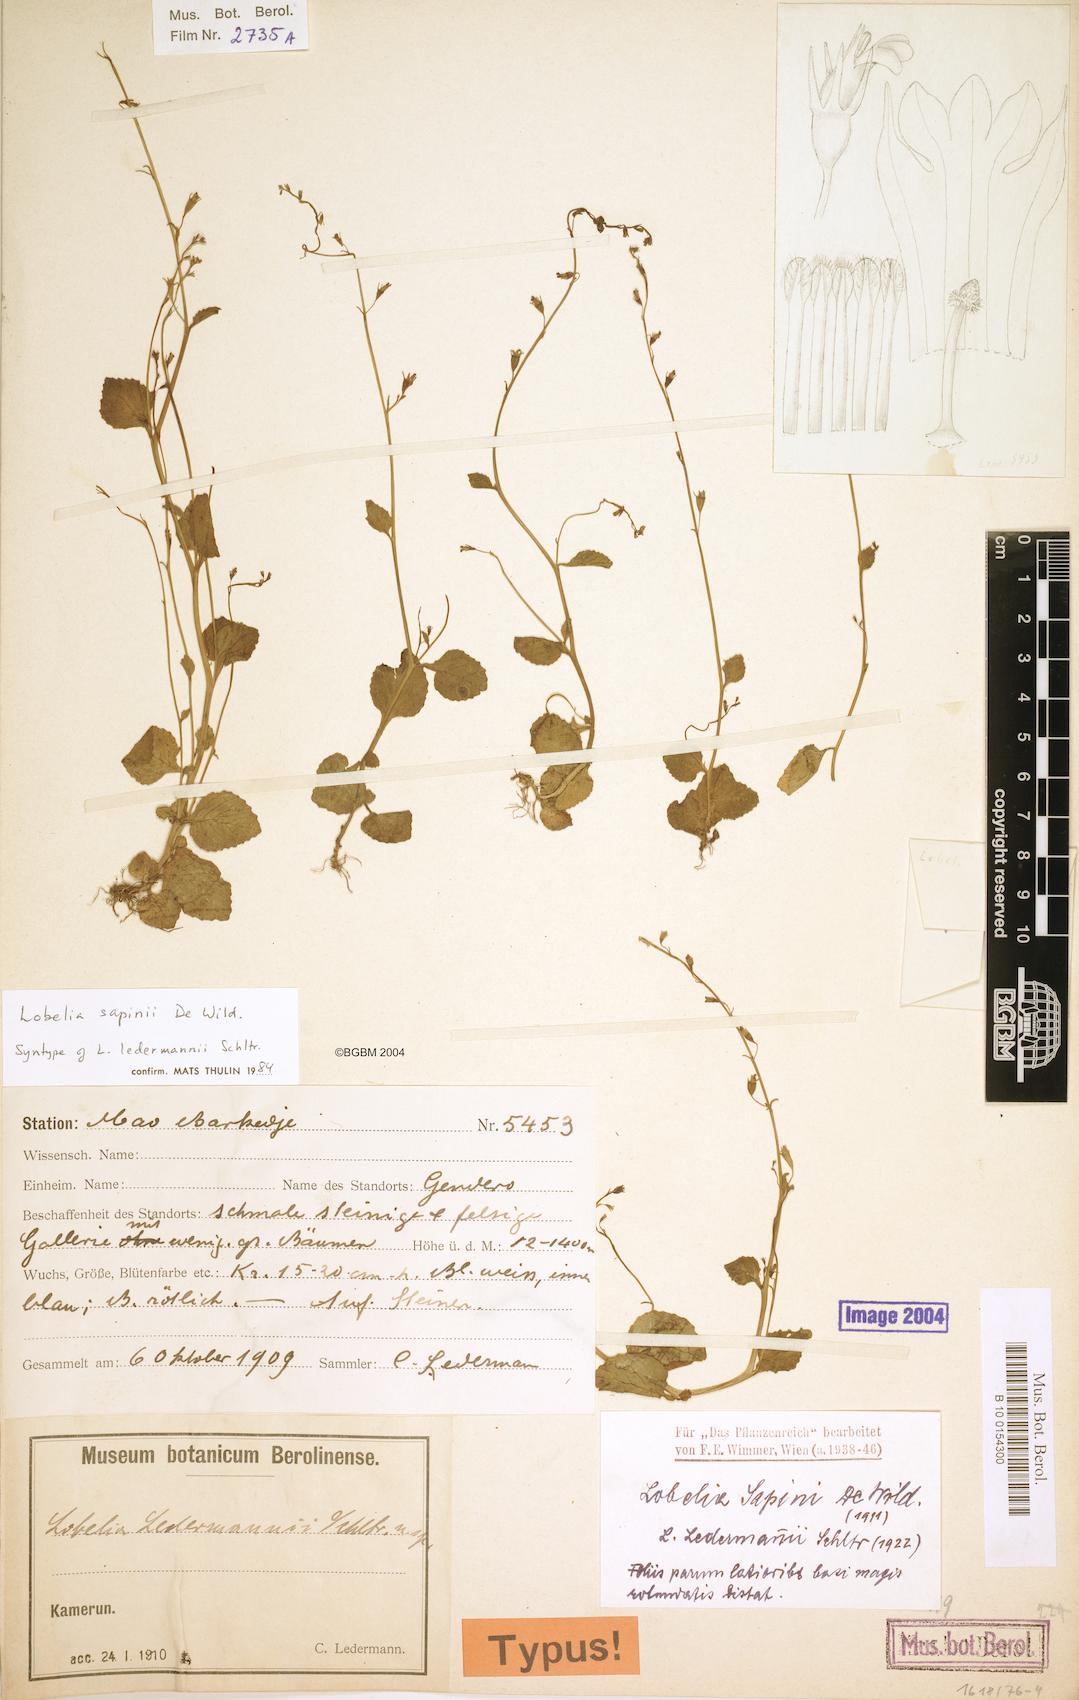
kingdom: Plantae
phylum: Tracheophyta
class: Magnoliopsida
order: Asterales
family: Campanulaceae
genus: Lobelia
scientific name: Lobelia sapinii
